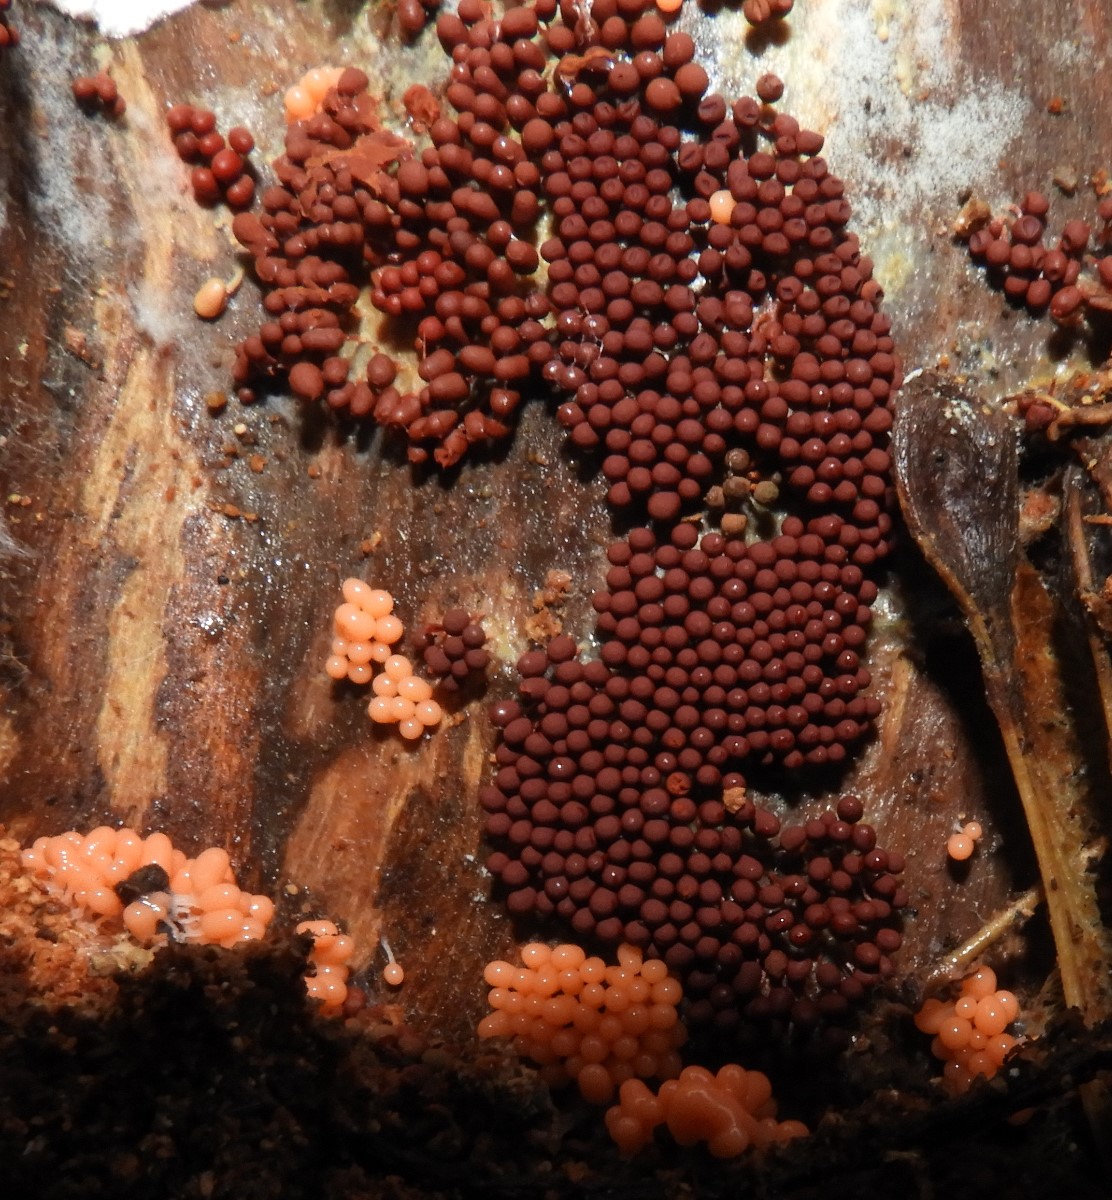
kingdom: Protozoa
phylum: Amoebozoa
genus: Arcyria
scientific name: Arcyria
